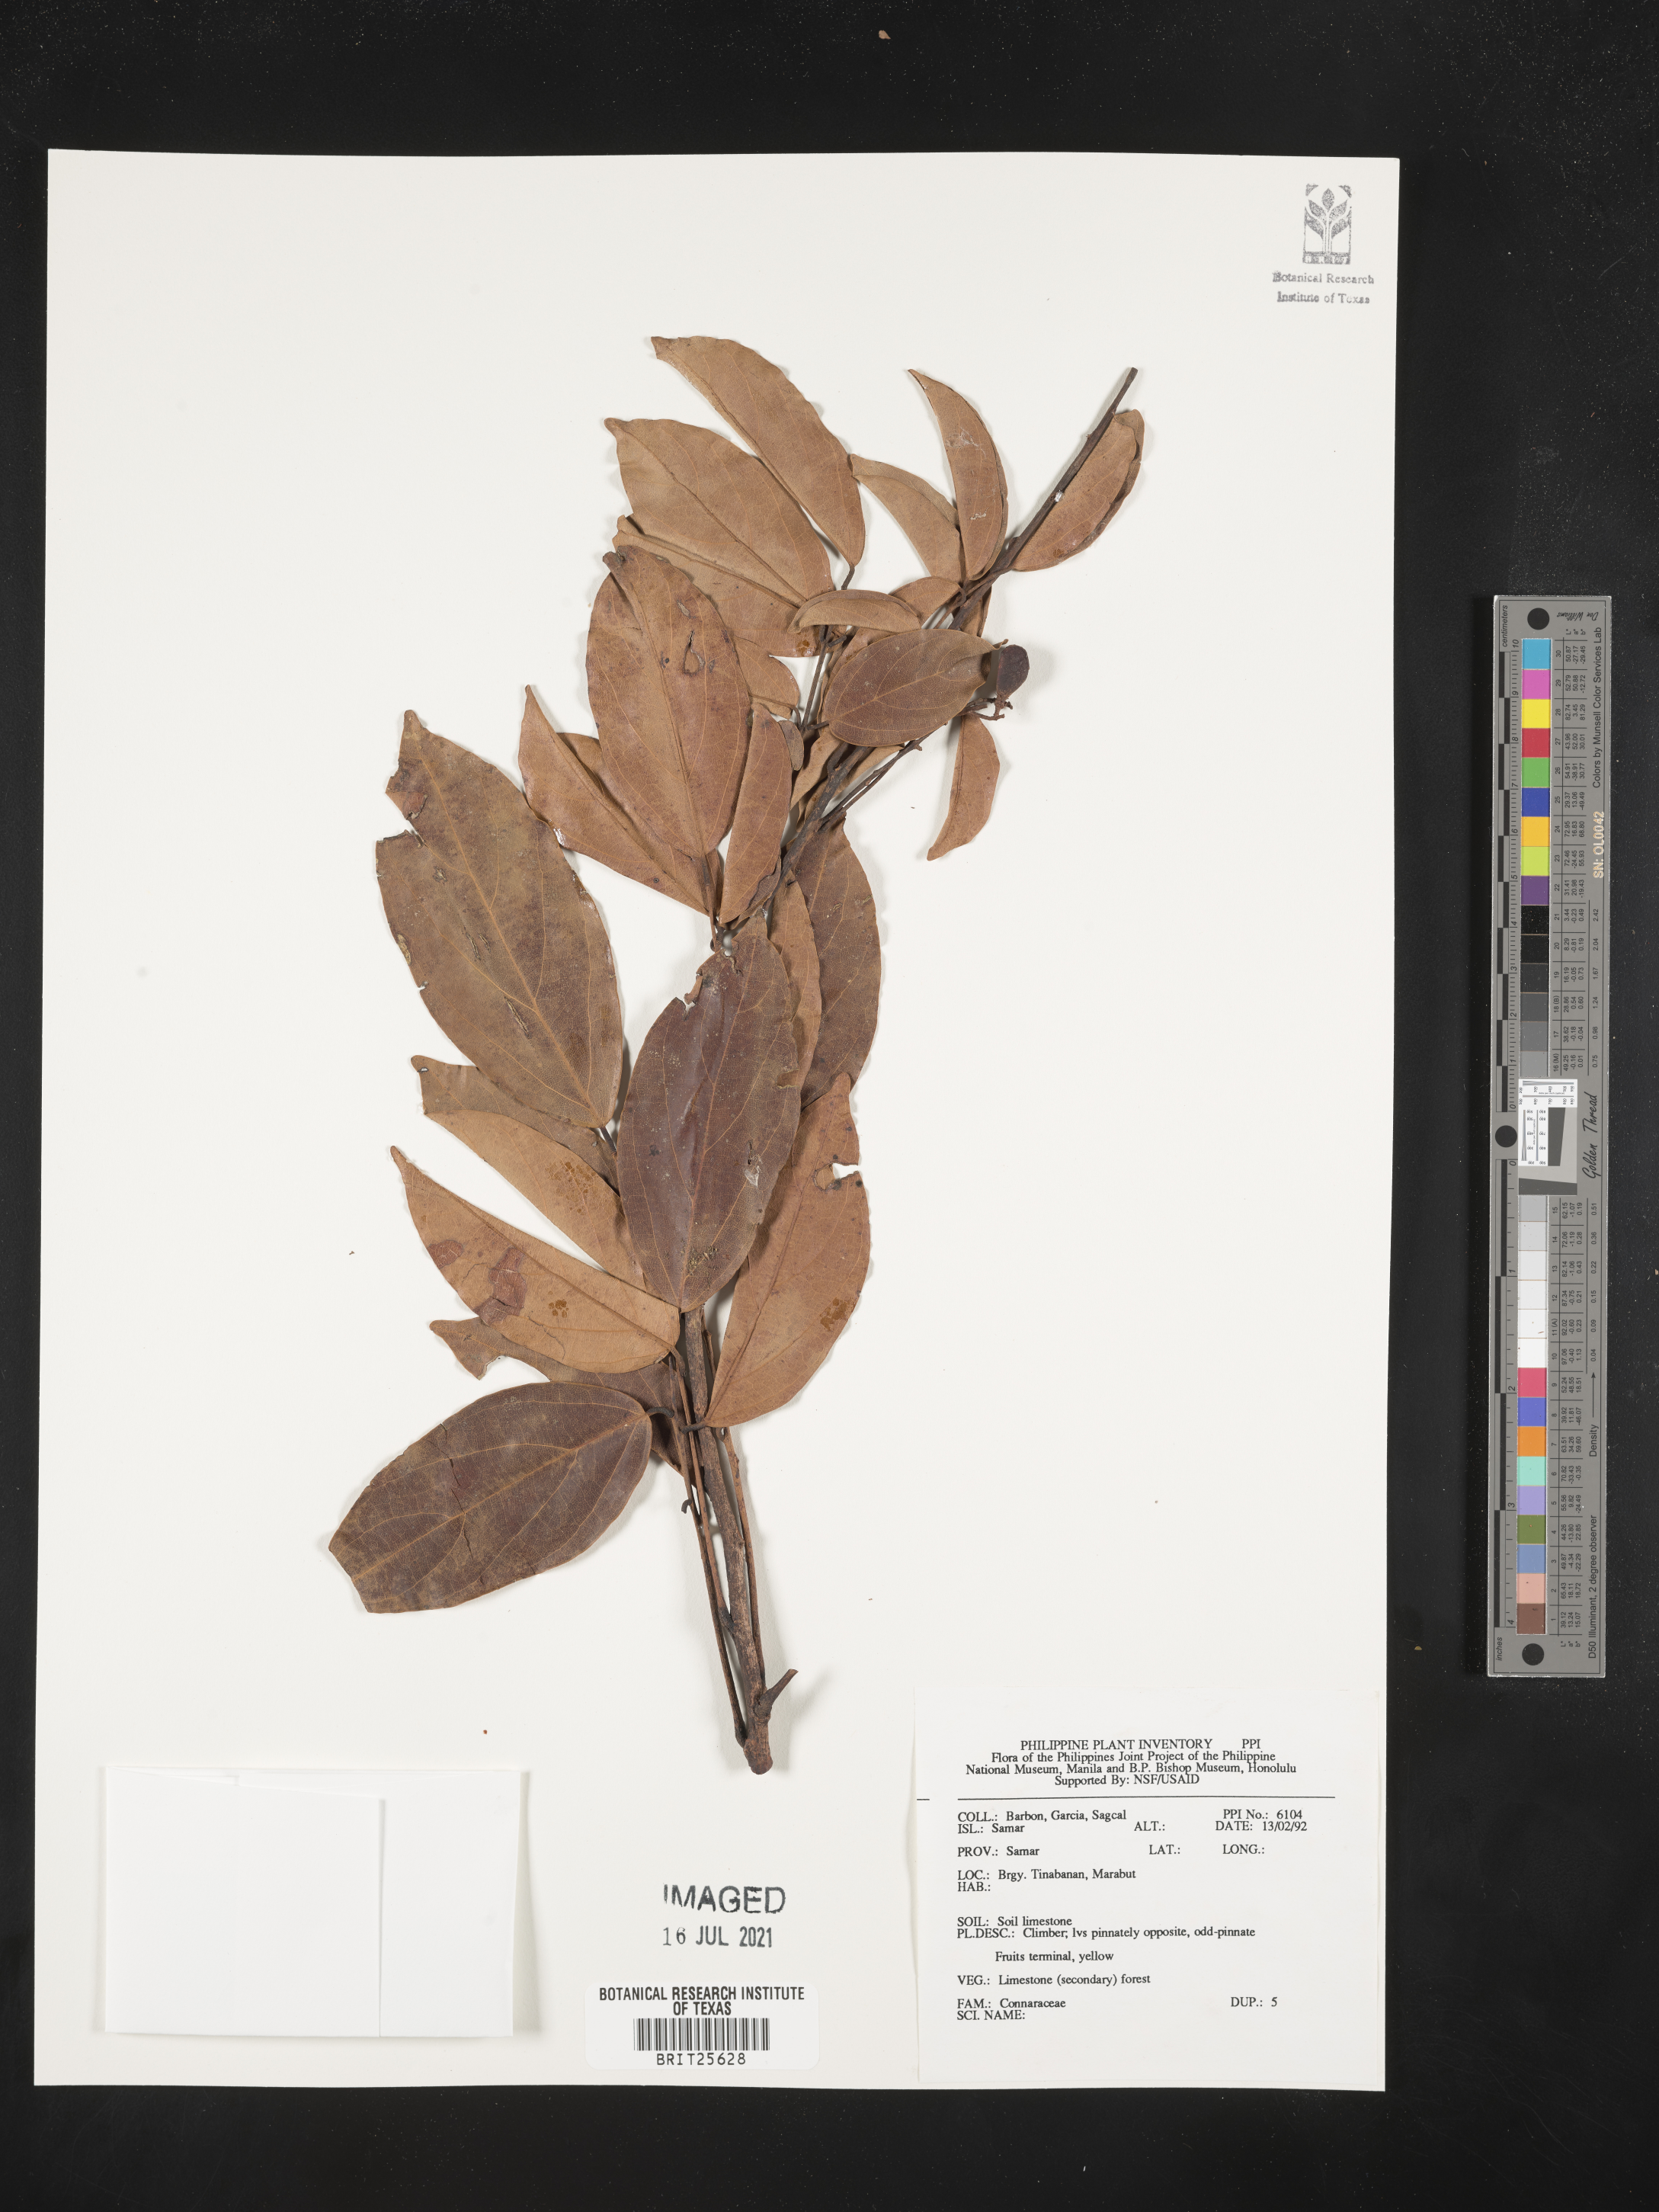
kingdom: Plantae
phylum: Tracheophyta
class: Magnoliopsida
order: Oxalidales
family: Connaraceae
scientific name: Connaraceae
